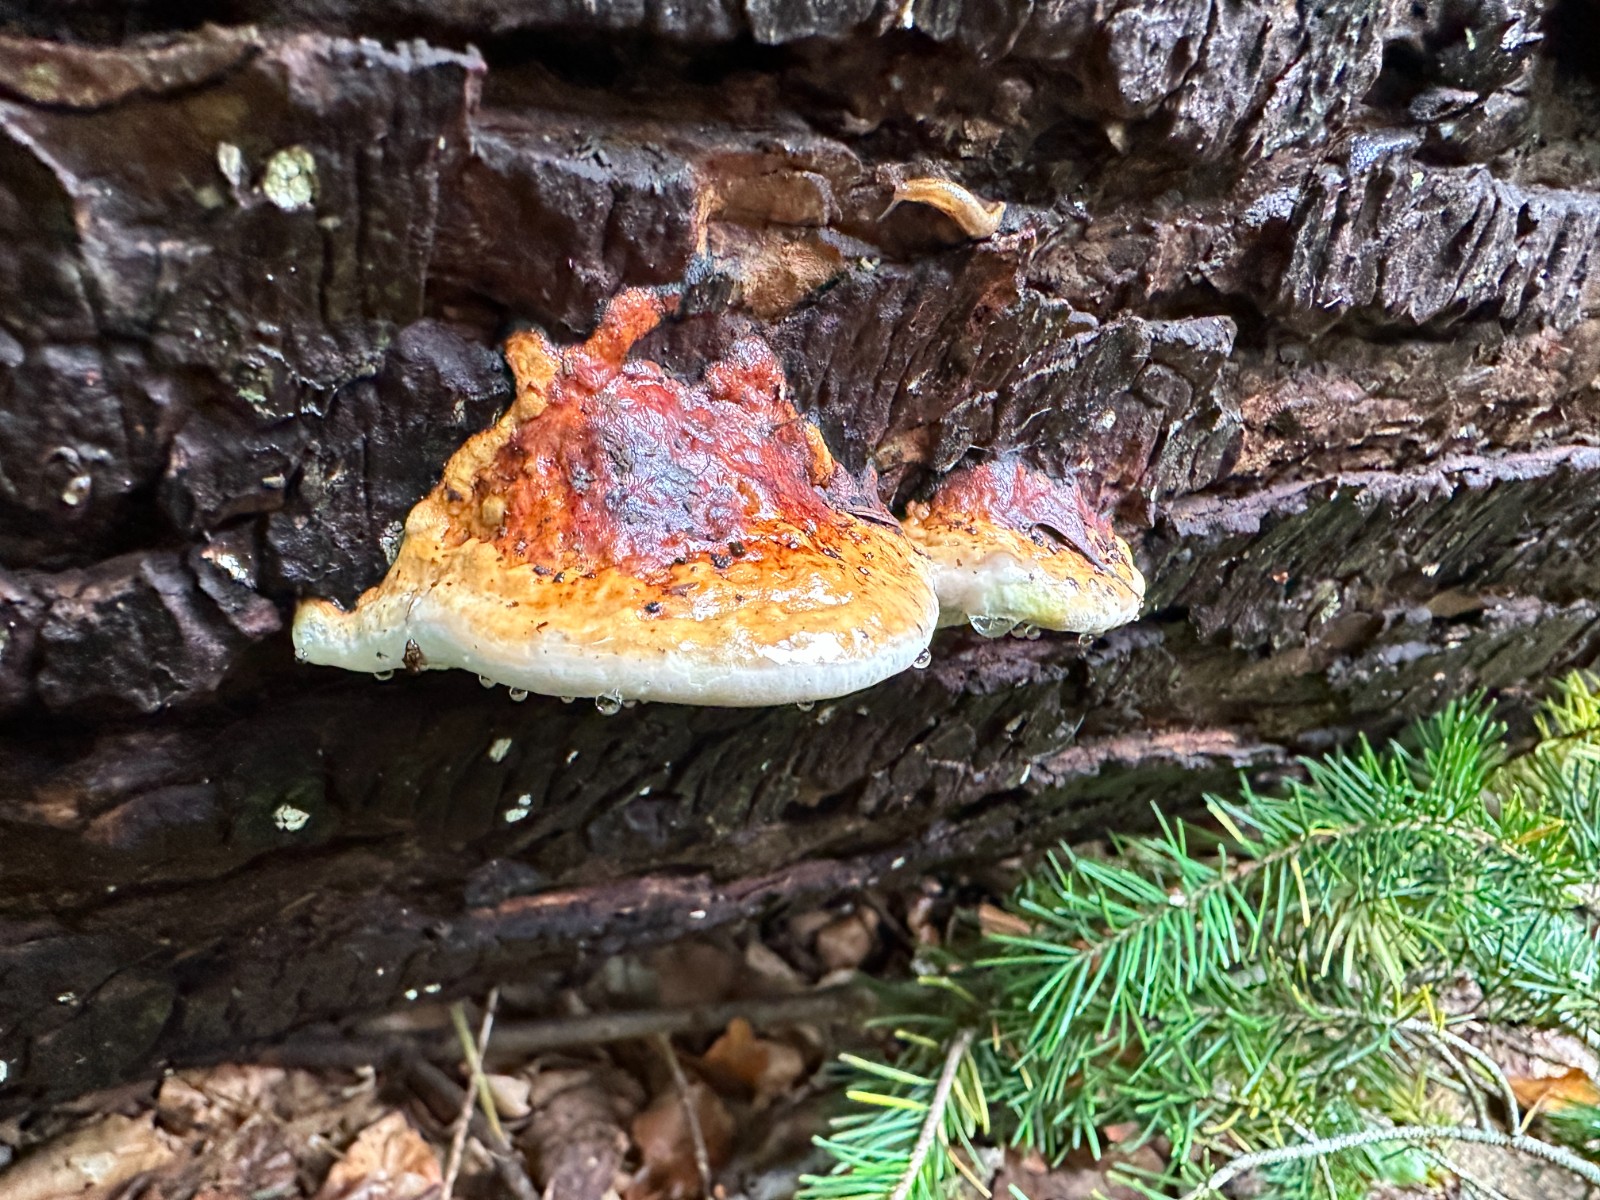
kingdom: Fungi
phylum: Basidiomycota
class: Agaricomycetes
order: Polyporales
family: Fomitopsidaceae
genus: Fomitopsis
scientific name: Fomitopsis pinicola
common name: randbæltet hovporesvamp
